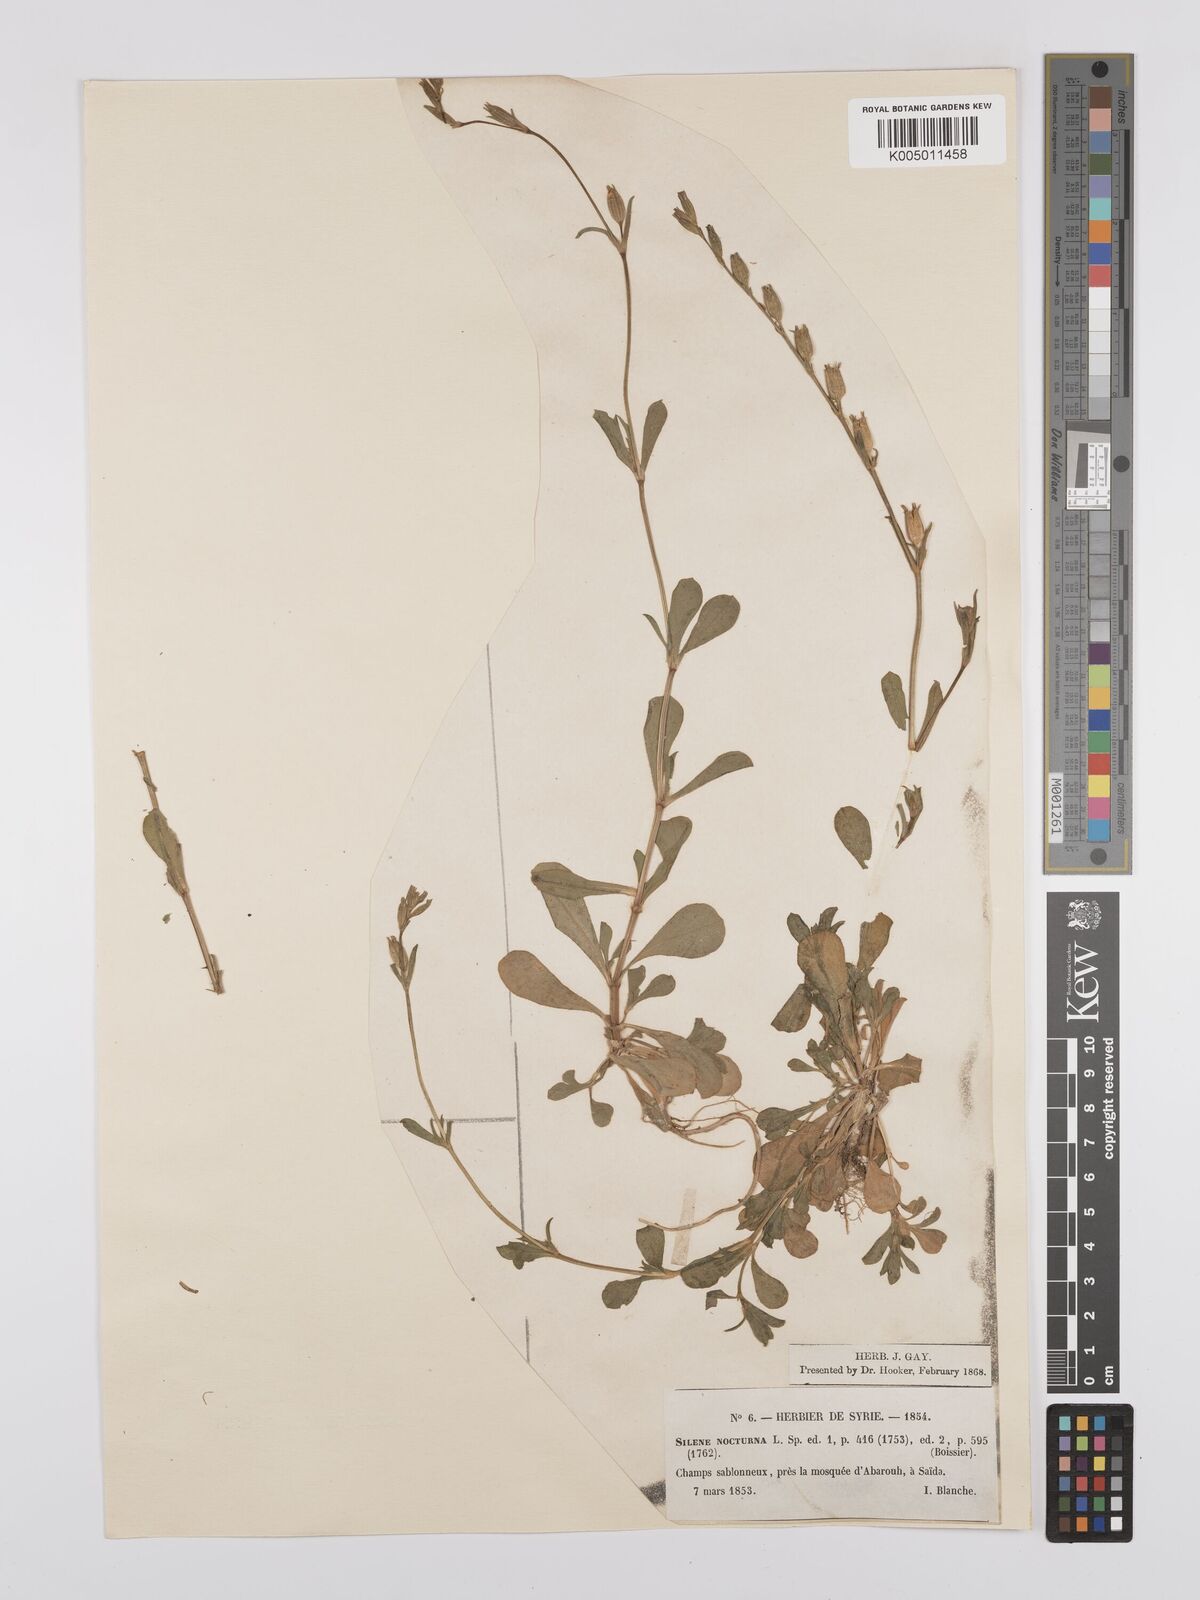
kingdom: Plantae
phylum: Tracheophyta
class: Magnoliopsida
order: Caryophyllales
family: Caryophyllaceae
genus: Silene
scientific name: Silene nocturna
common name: Mediterranean catchfly
